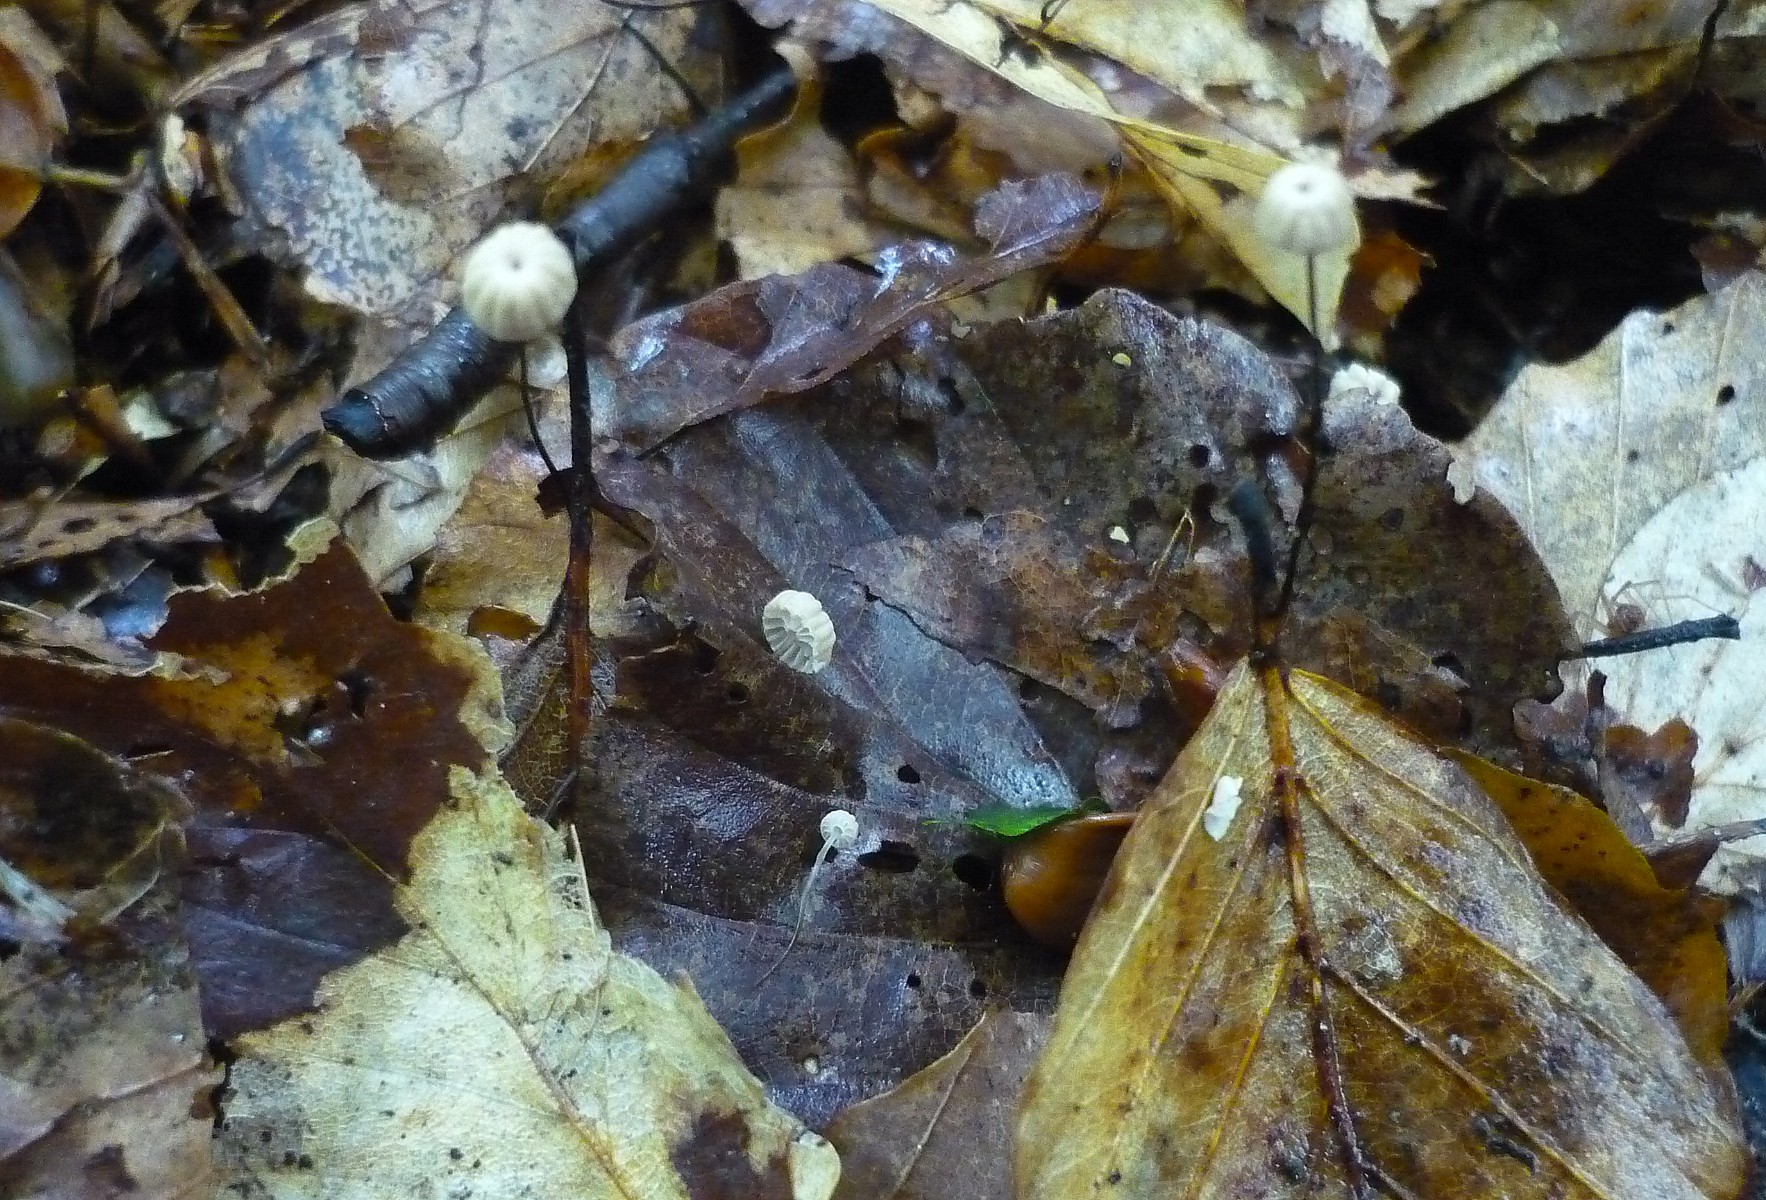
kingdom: Fungi
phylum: Basidiomycota
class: Agaricomycetes
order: Agaricales
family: Marasmiaceae
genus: Marasmius
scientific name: Marasmius bulliardii
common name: furet bruskhat
